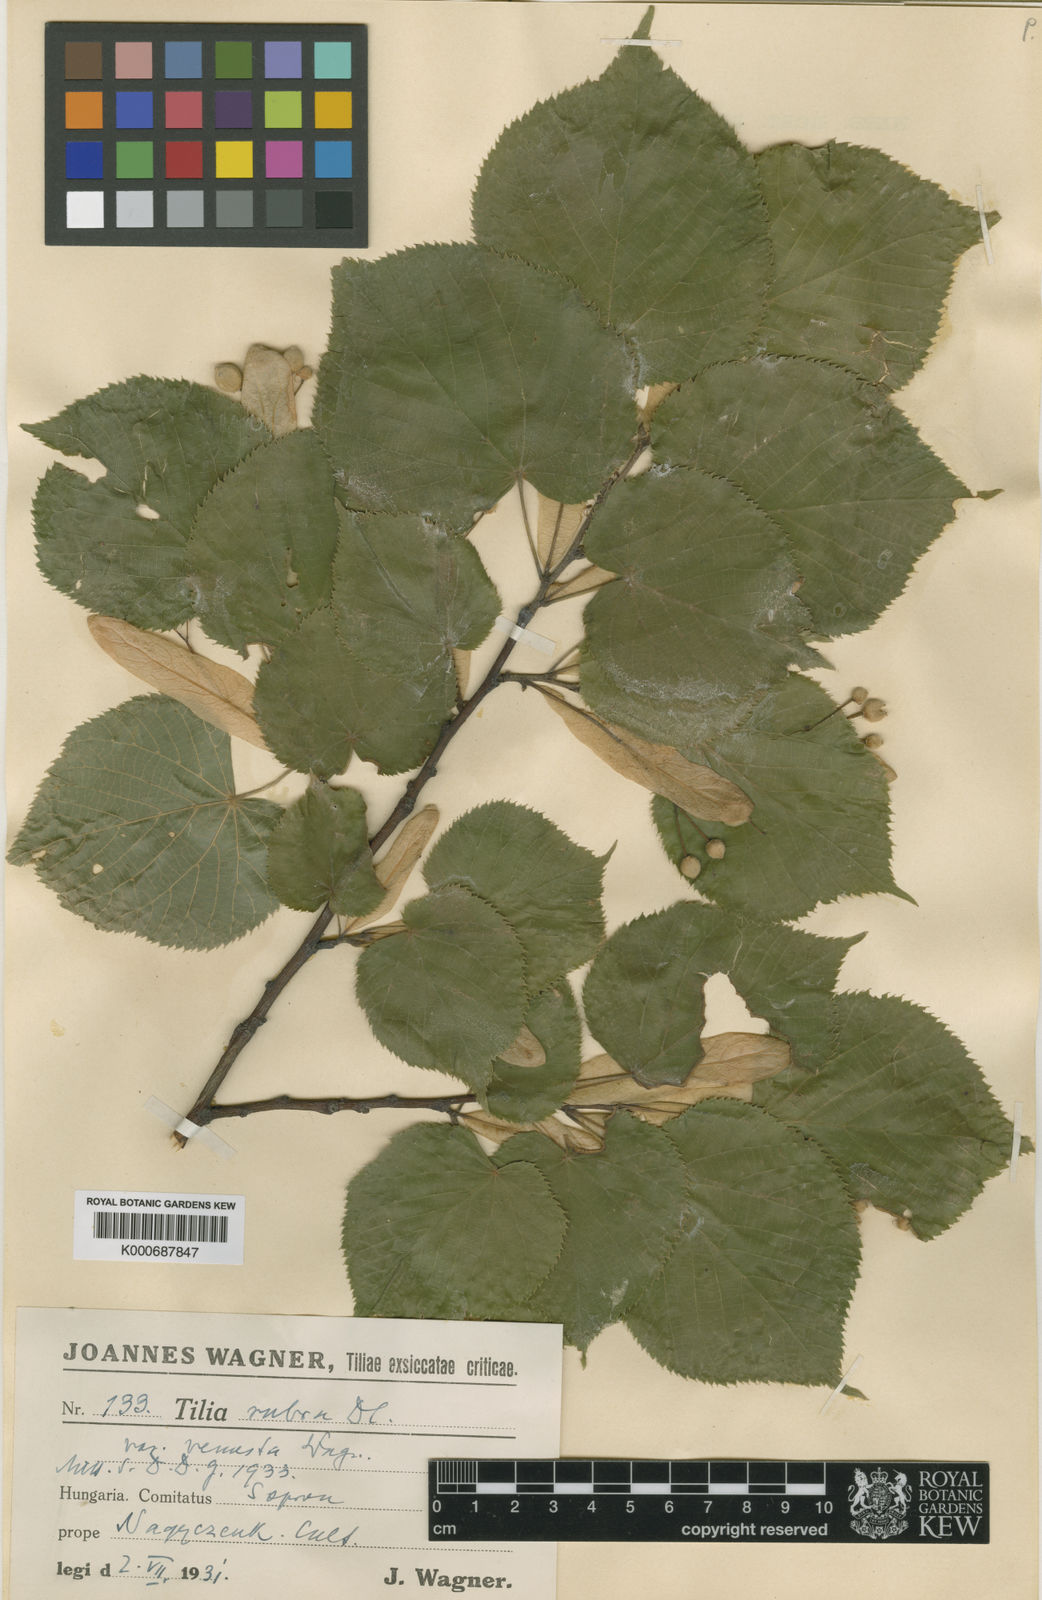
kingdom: Plantae
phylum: Tracheophyta
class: Magnoliopsida
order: Malvales
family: Malvaceae
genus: Tilia
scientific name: Tilia platyphyllos
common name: Large-leaved lime
